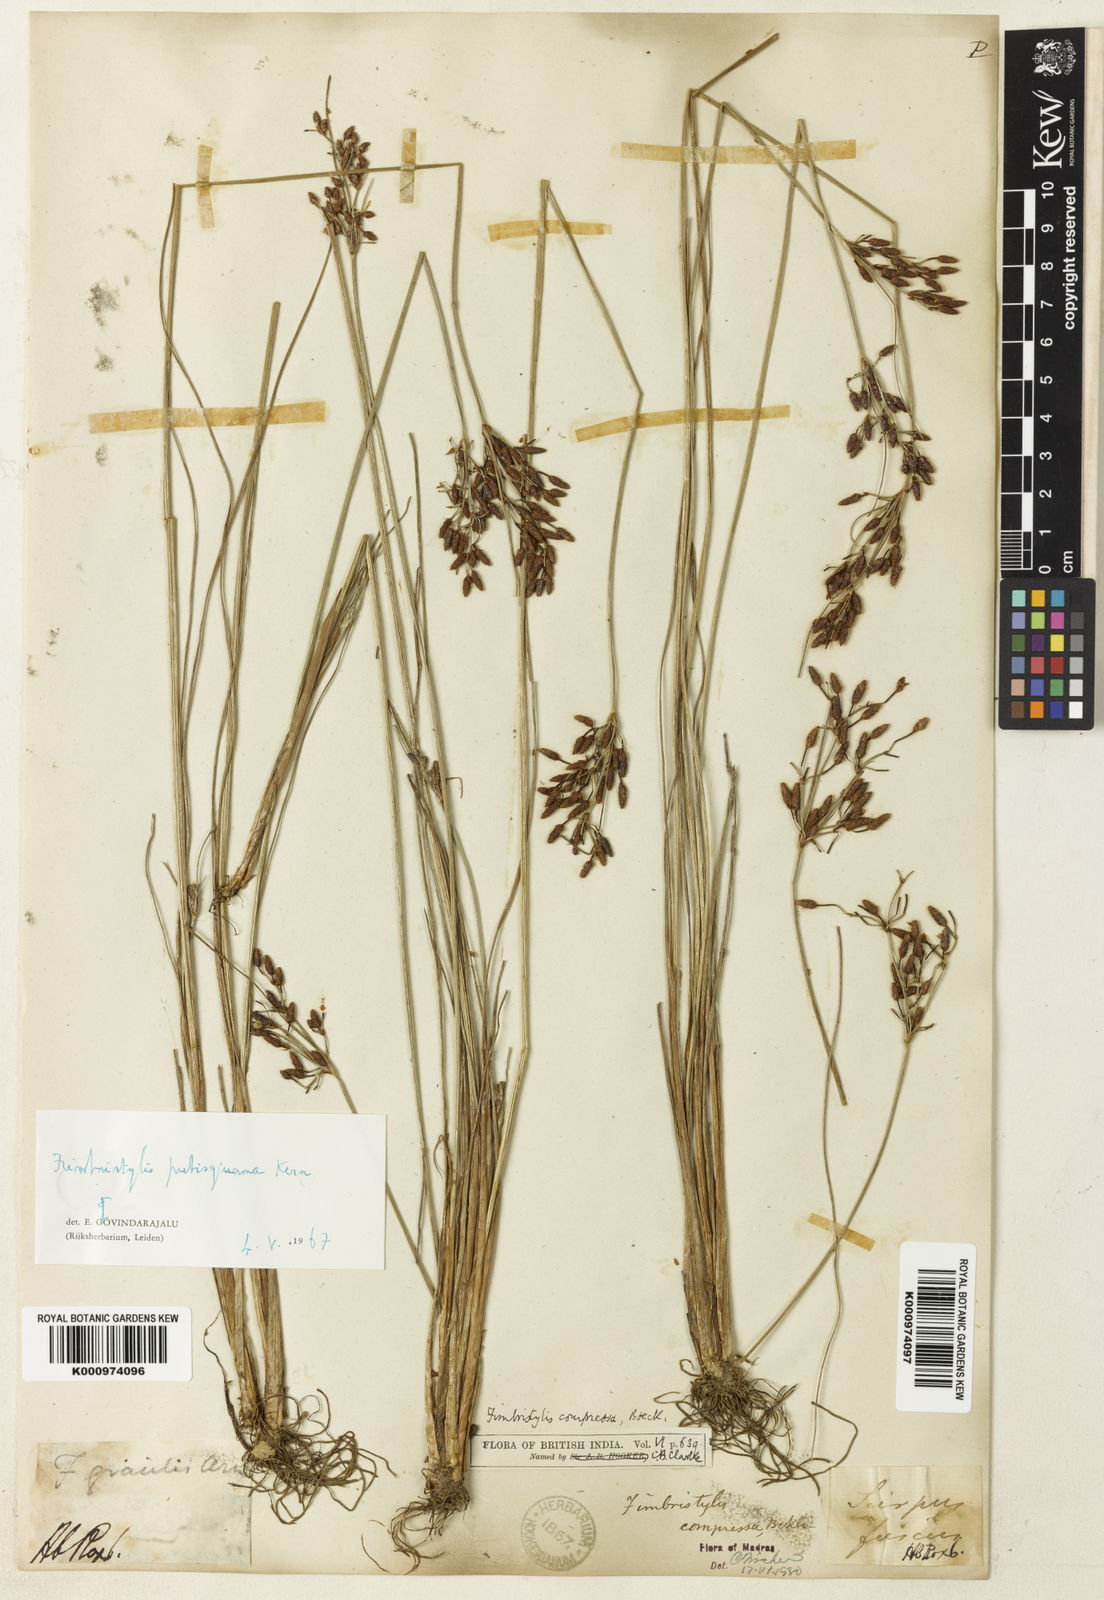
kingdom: Plantae
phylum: Tracheophyta
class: Liliopsida
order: Poales
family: Cyperaceae
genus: Fimbristylis
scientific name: Fimbristylis pubisquama
